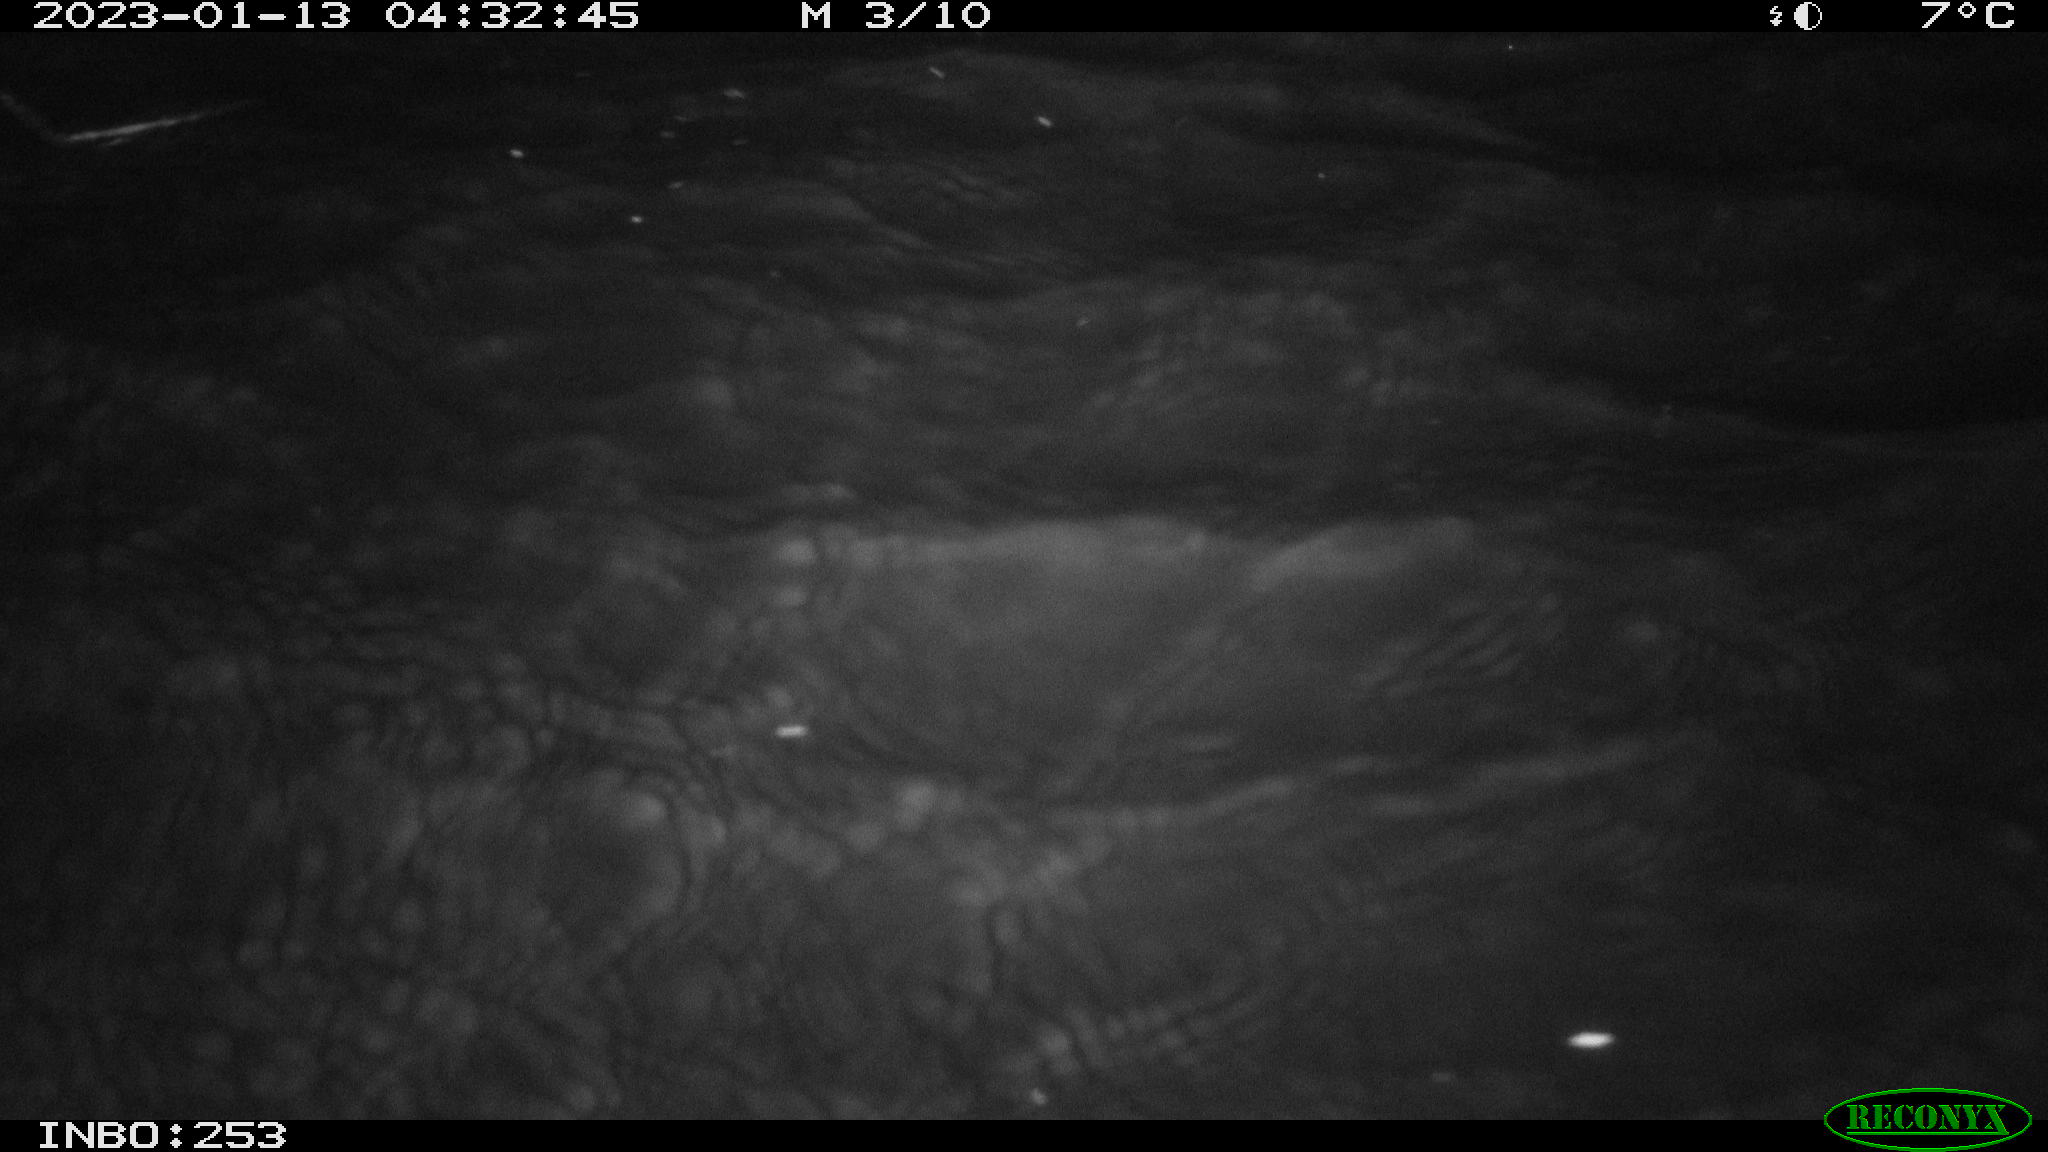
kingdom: Animalia
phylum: Chordata
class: Mammalia
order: Rodentia
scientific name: Rodentia
